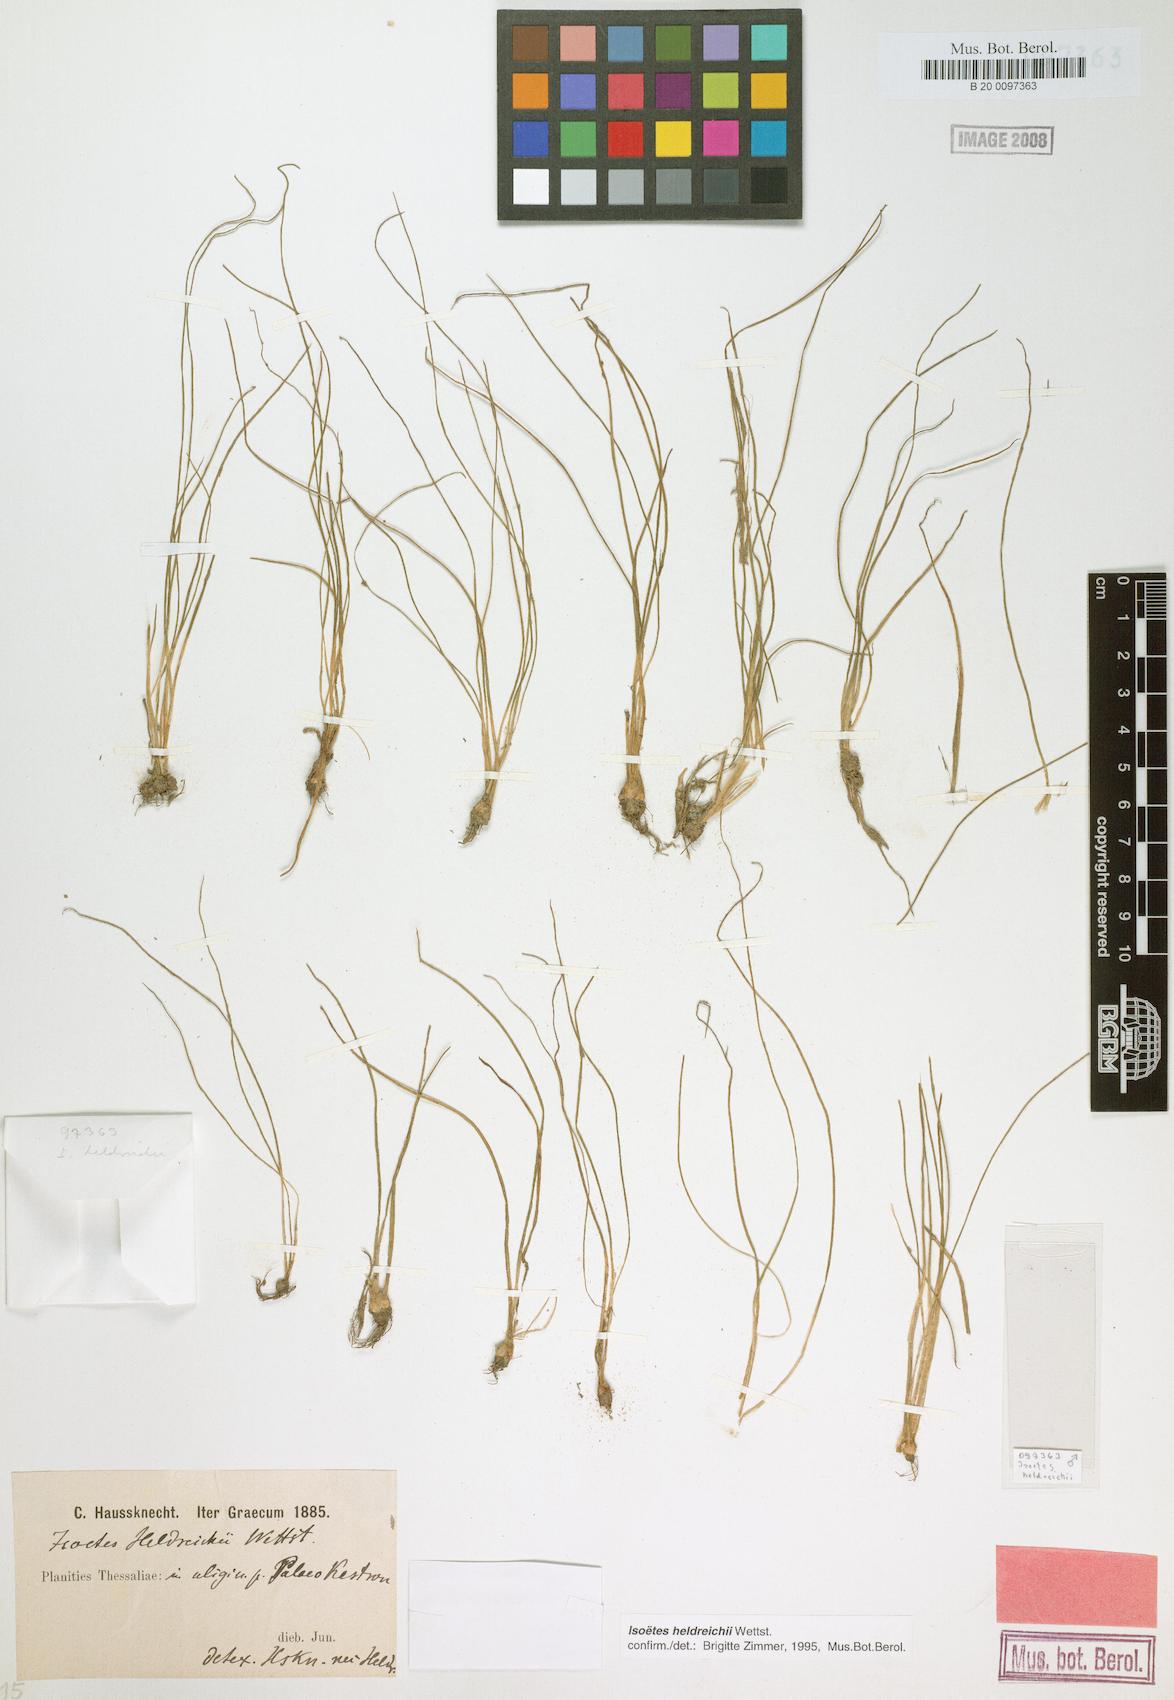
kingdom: Plantae
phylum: Tracheophyta
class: Lycopodiopsida
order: Isoetales
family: Isoetaceae
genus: Isoetes
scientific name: Isoetes heldreichii
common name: Pindus quillwort
